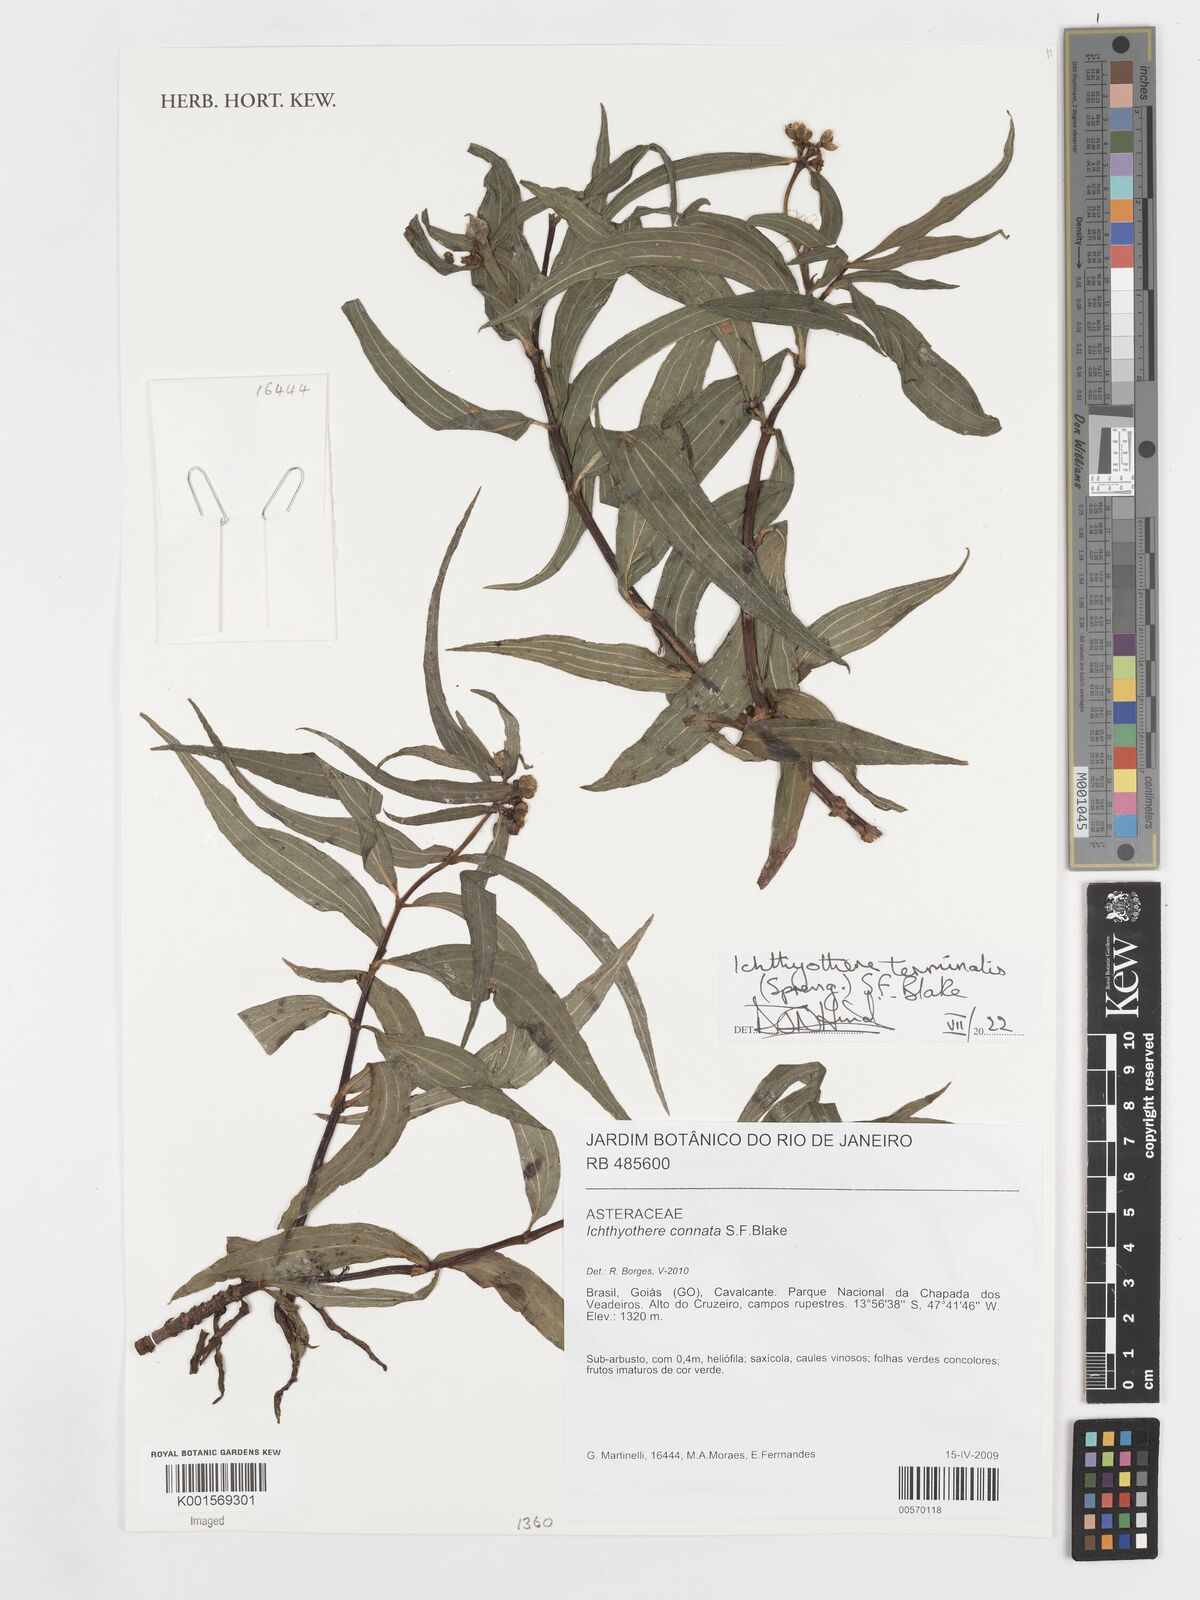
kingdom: Plantae
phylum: Tracheophyta
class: Magnoliopsida
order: Asterales
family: Asteraceae
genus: Ichthyothere
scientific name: Ichthyothere terminalis
